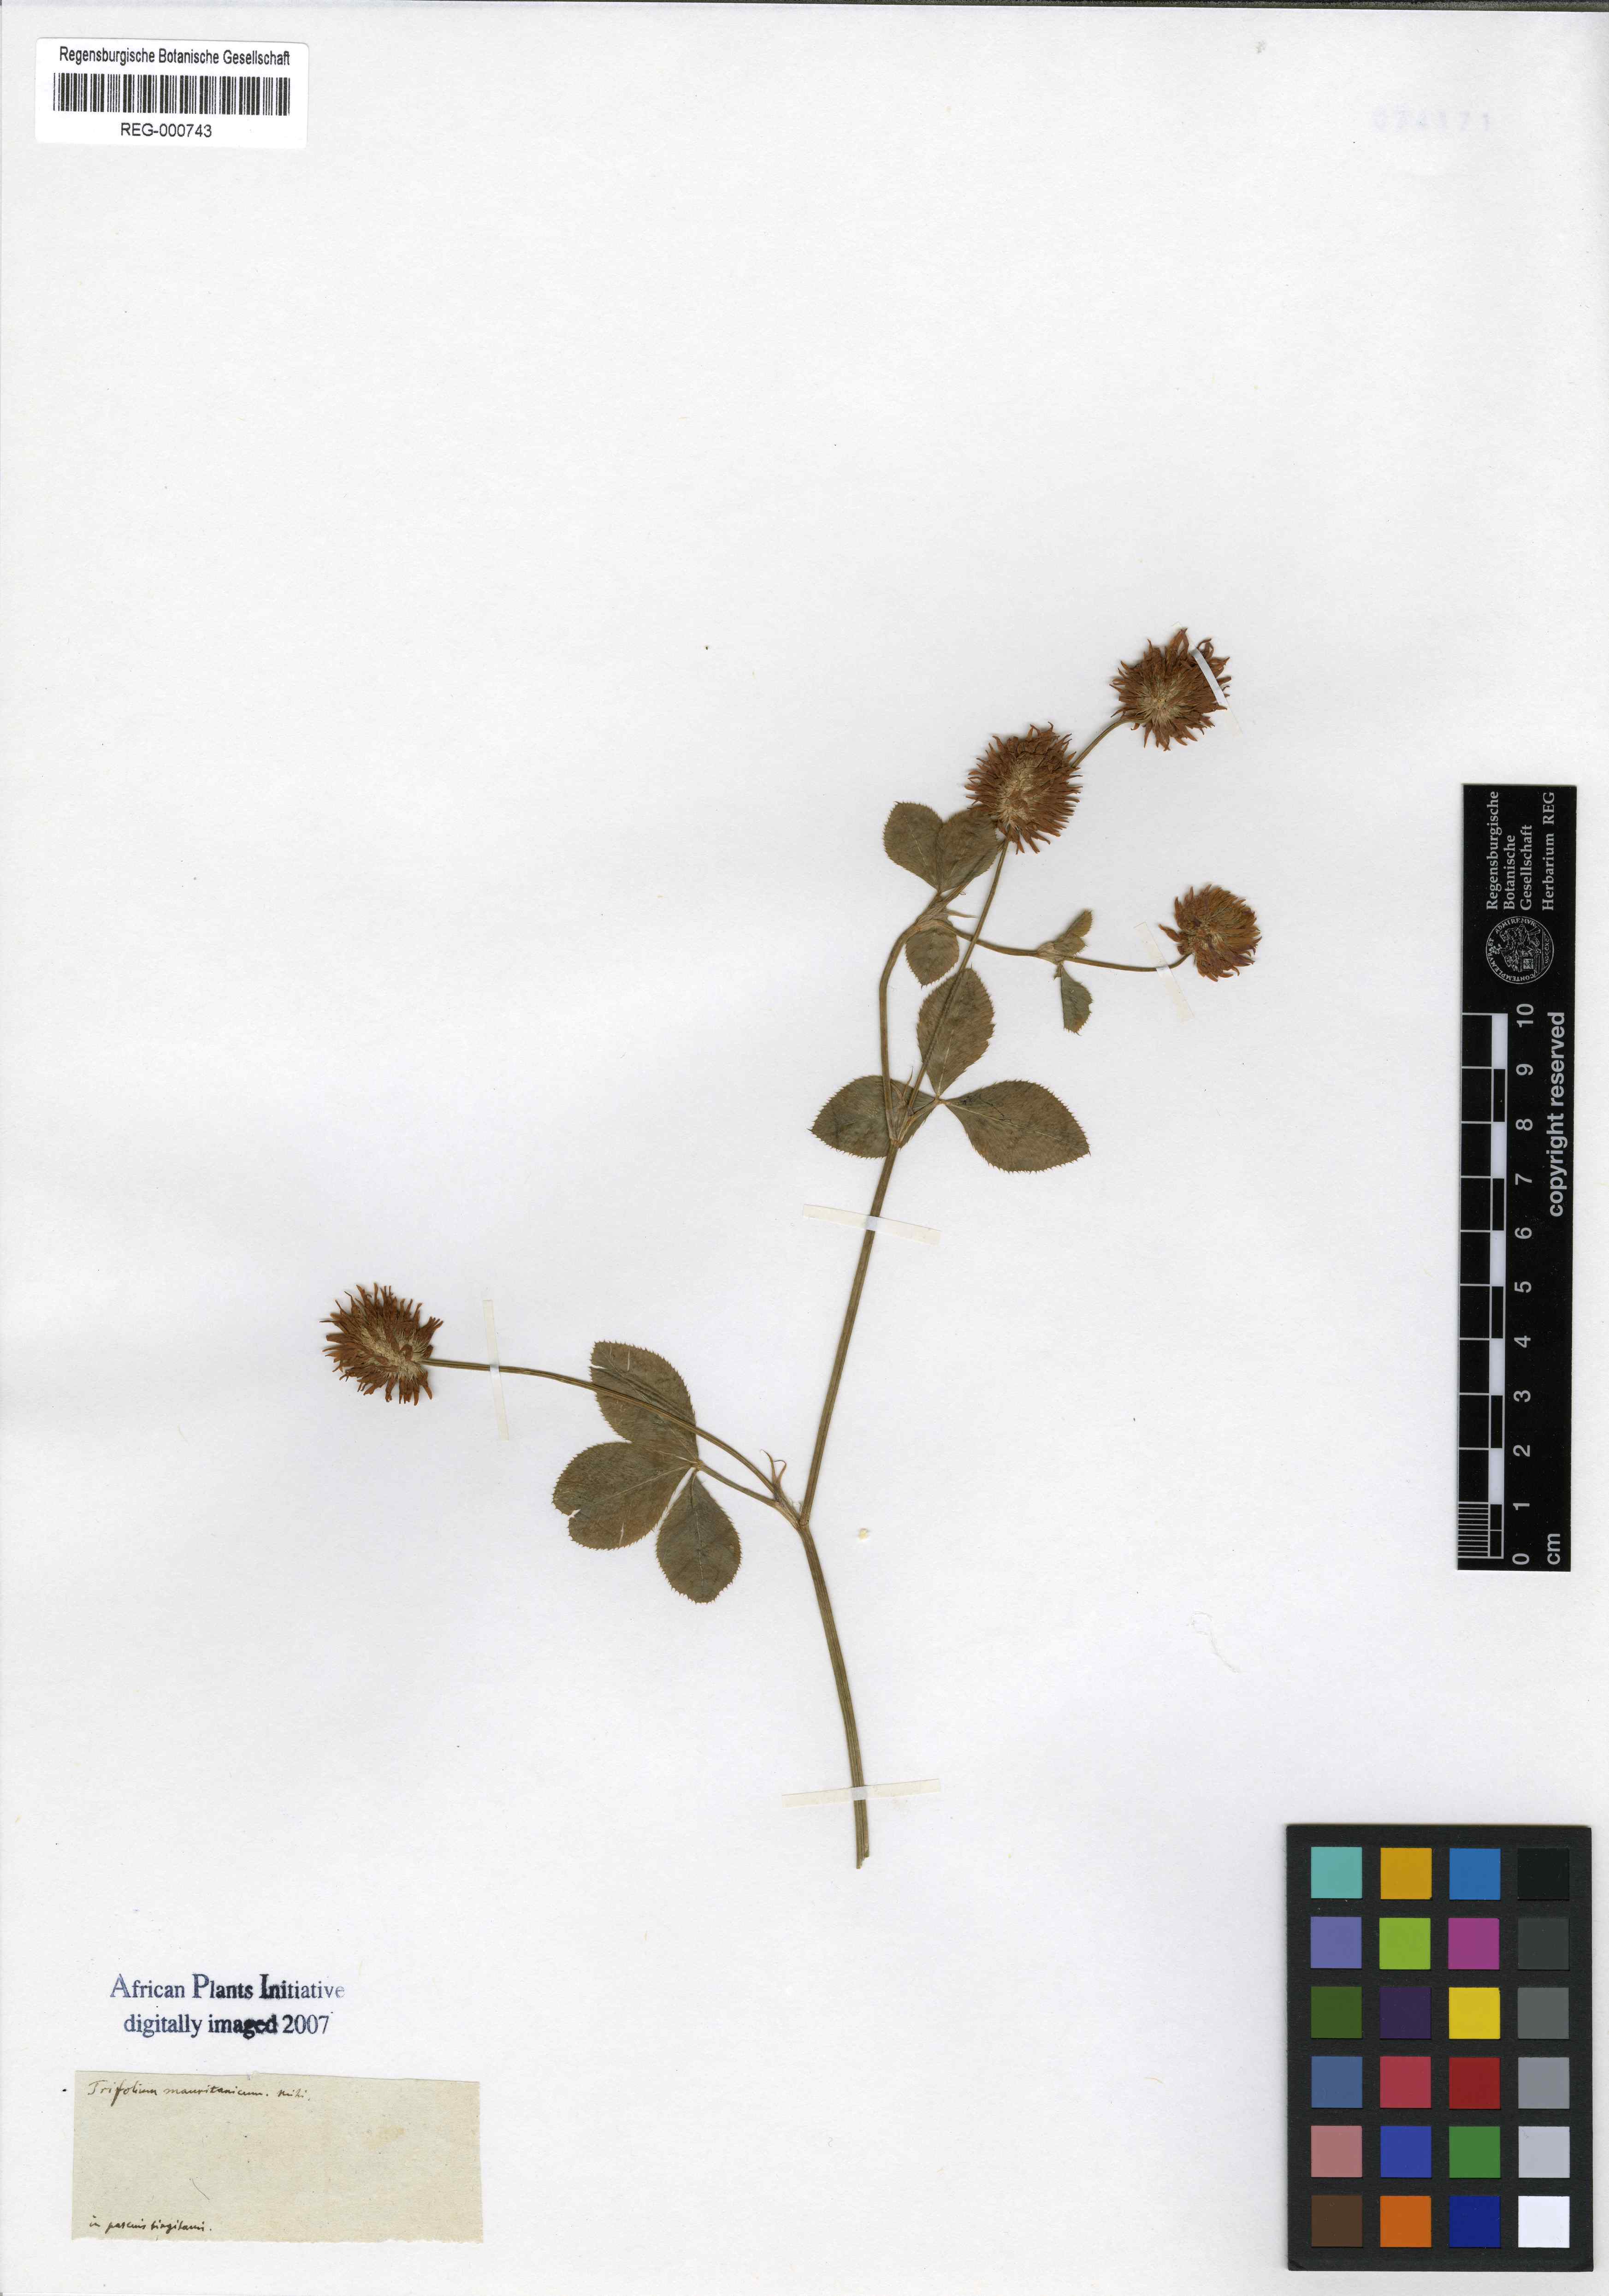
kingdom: Plantae
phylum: Tracheophyta
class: Magnoliopsida
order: Fabales
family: Fabaceae
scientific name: Fabaceae
